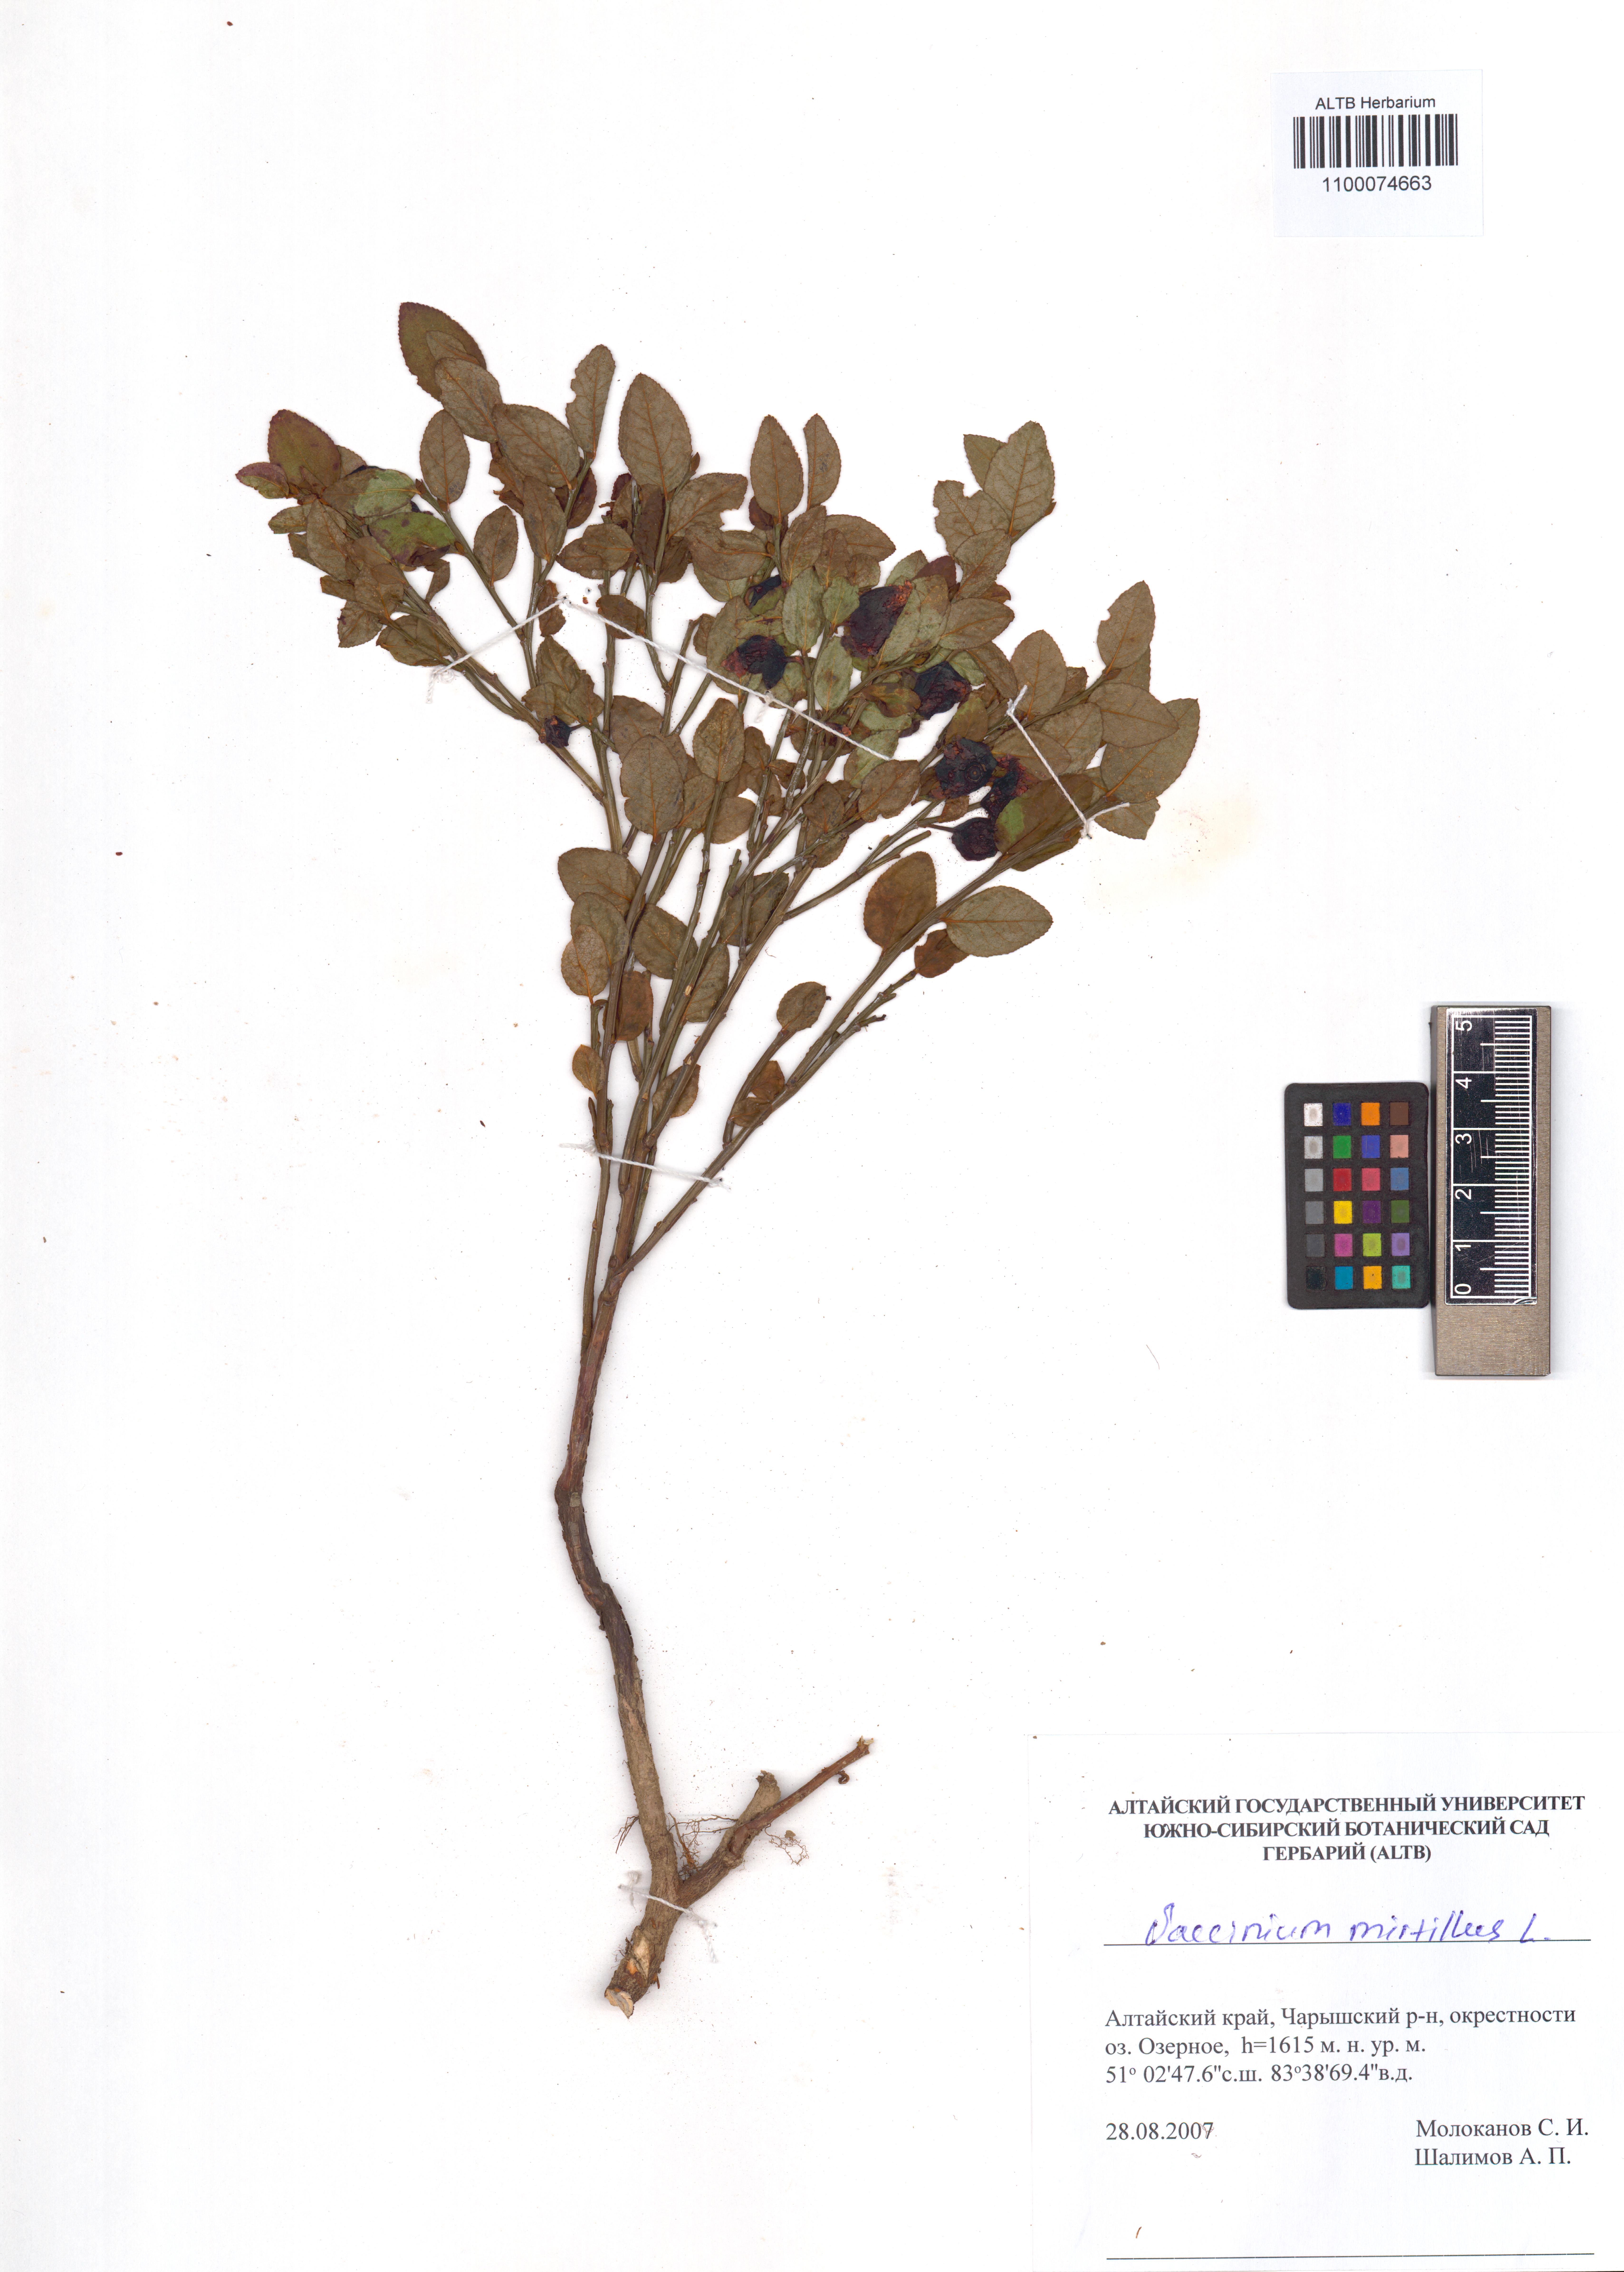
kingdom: Plantae
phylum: Tracheophyta
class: Magnoliopsida
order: Ericales
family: Ericaceae
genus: Vaccinium
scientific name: Vaccinium myrtillus
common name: Bilberry
